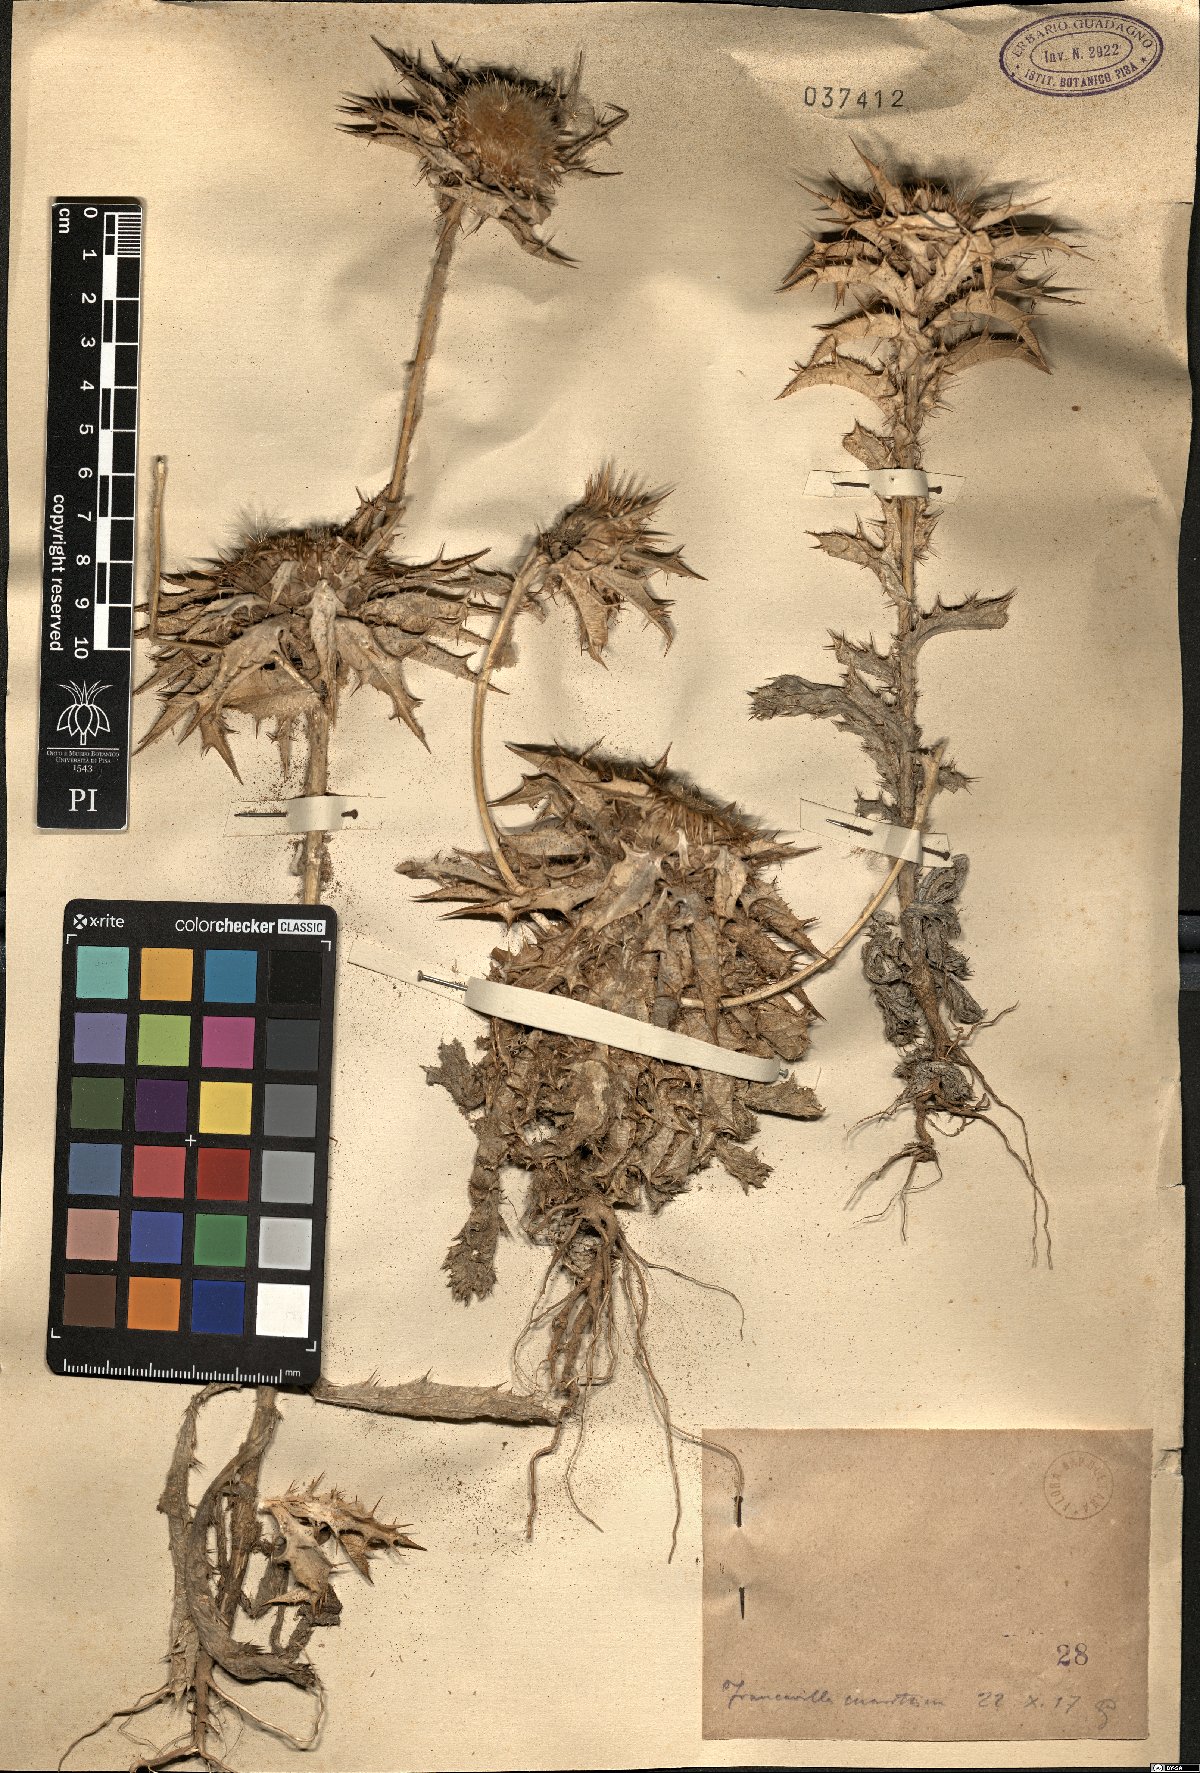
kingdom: Plantae
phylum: Tracheophyta
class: Magnoliopsida
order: Asterales
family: Asteraceae
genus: Carlina
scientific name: Carlina
